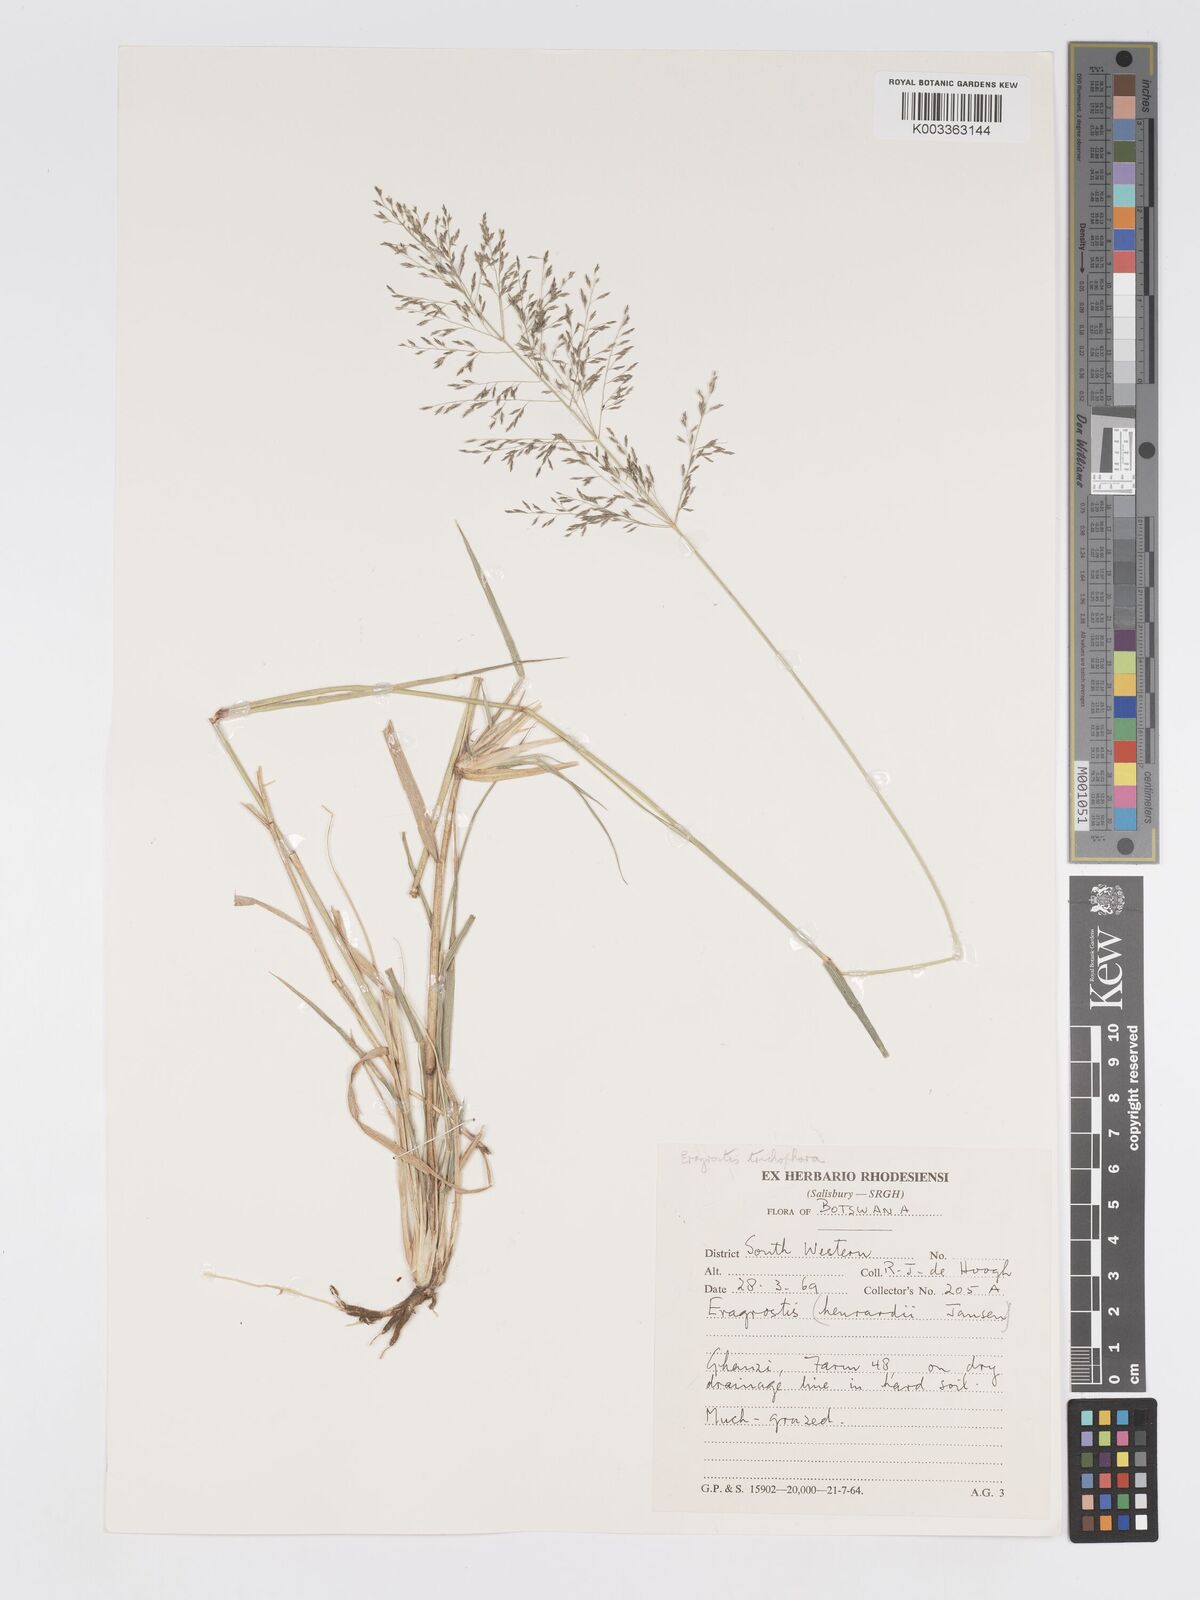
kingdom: Plantae
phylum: Tracheophyta
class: Liliopsida
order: Poales
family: Poaceae
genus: Eragrostis
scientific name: Eragrostis cylindriflora
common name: Cylinderflower lovegrass
